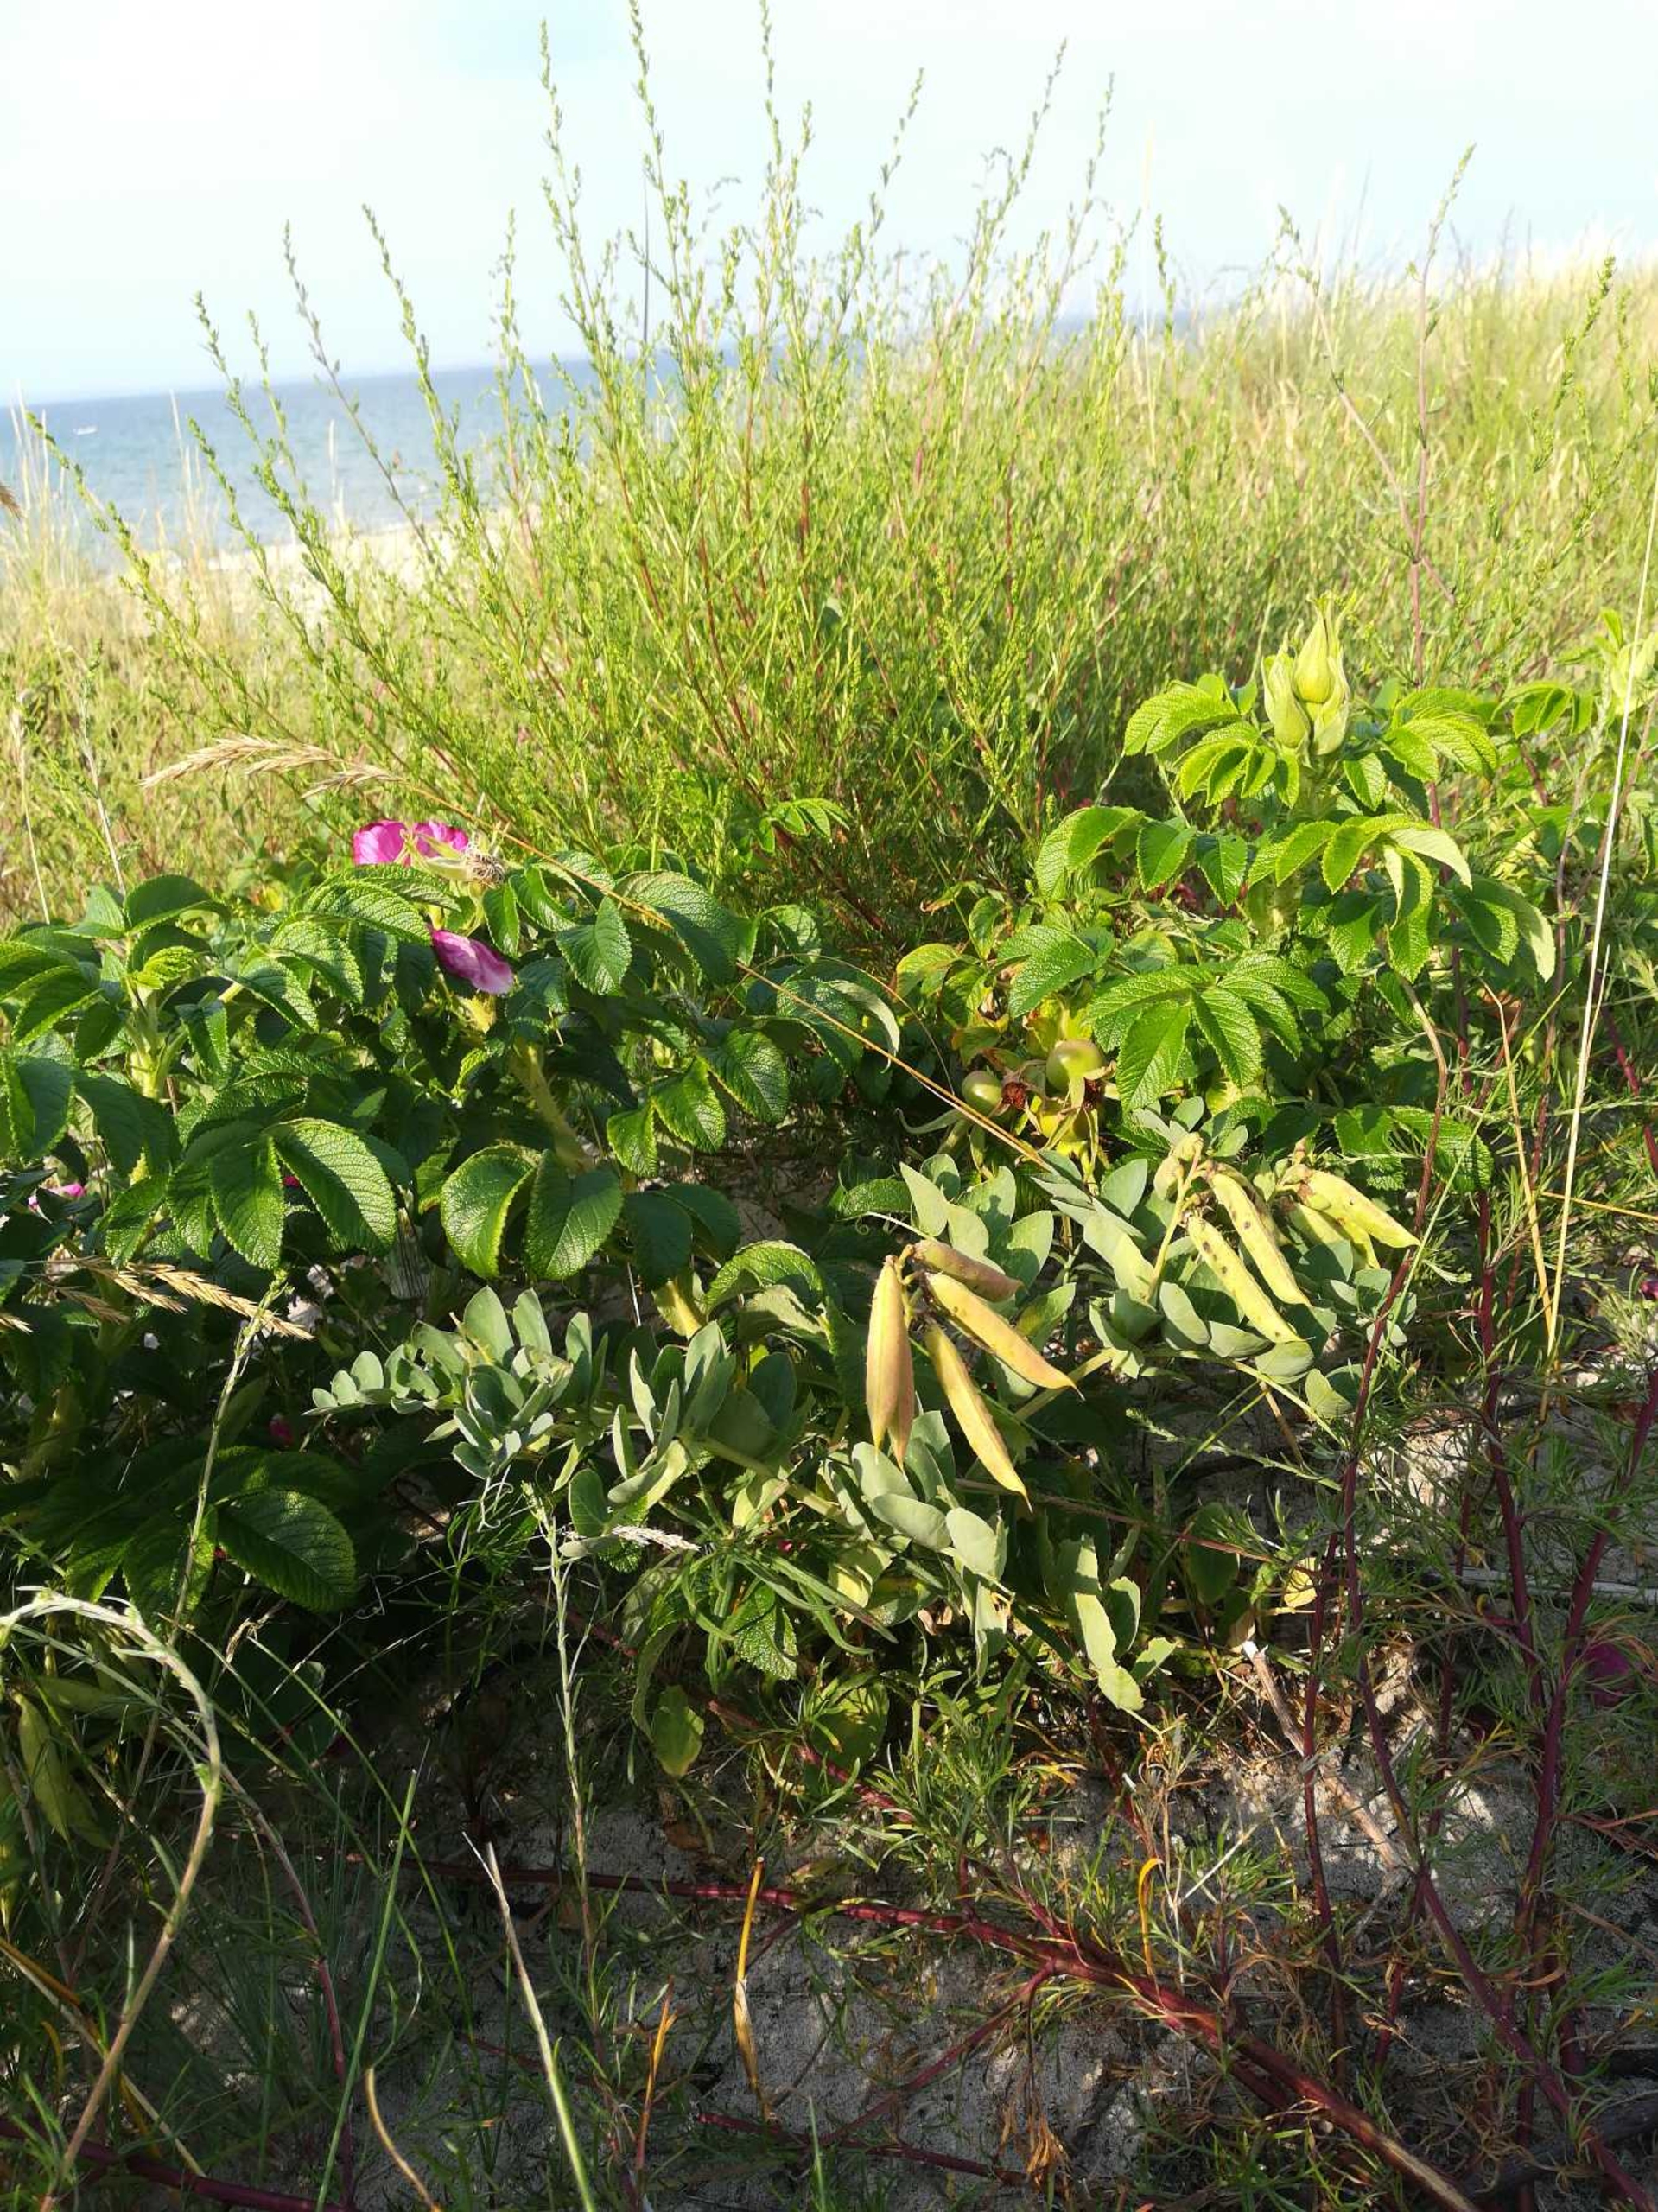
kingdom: Plantae
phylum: Tracheophyta
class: Magnoliopsida
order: Fabales
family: Fabaceae
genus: Lathyrus
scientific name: Lathyrus japonicus
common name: Strand-fladbælg
